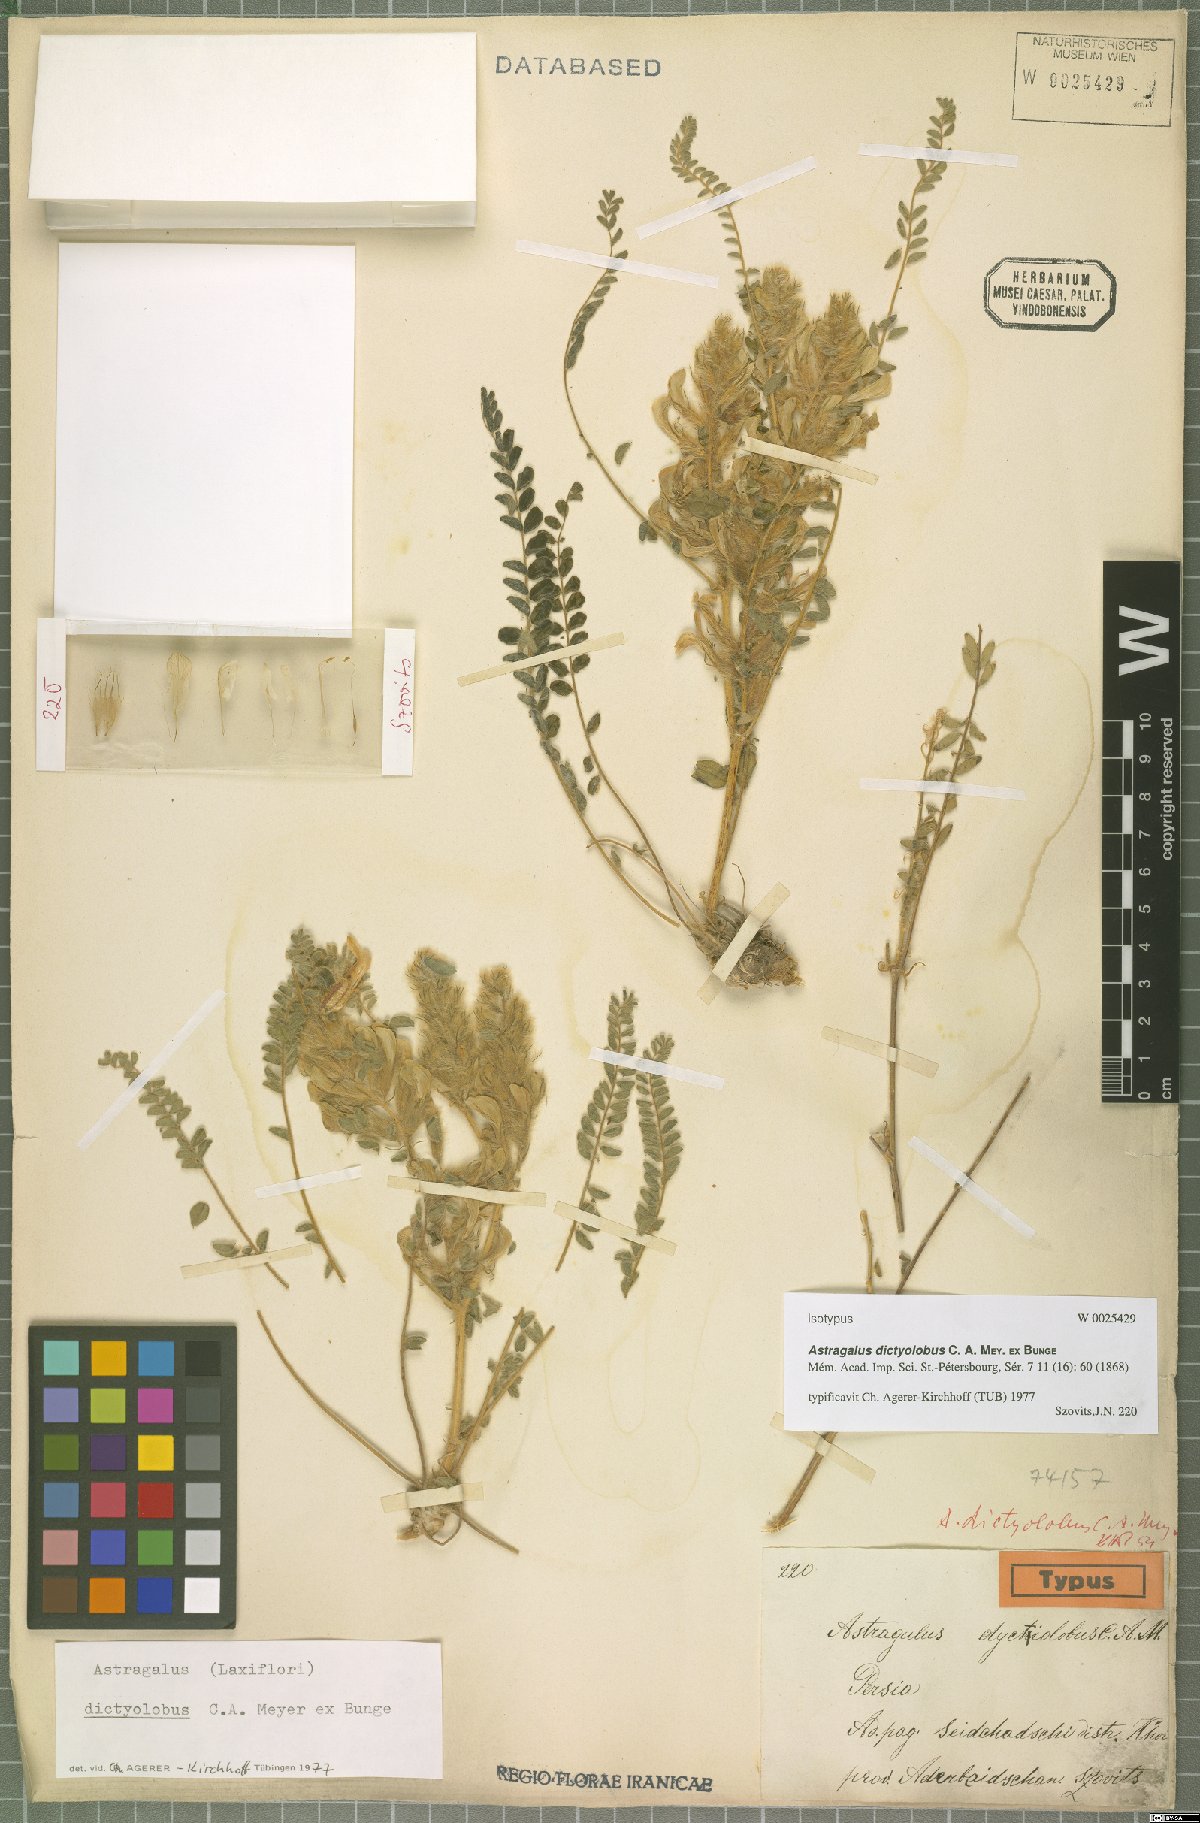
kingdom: Plantae
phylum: Tracheophyta
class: Magnoliopsida
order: Fabales
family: Fabaceae
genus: Astragalus
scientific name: Astragalus dictyolobus
